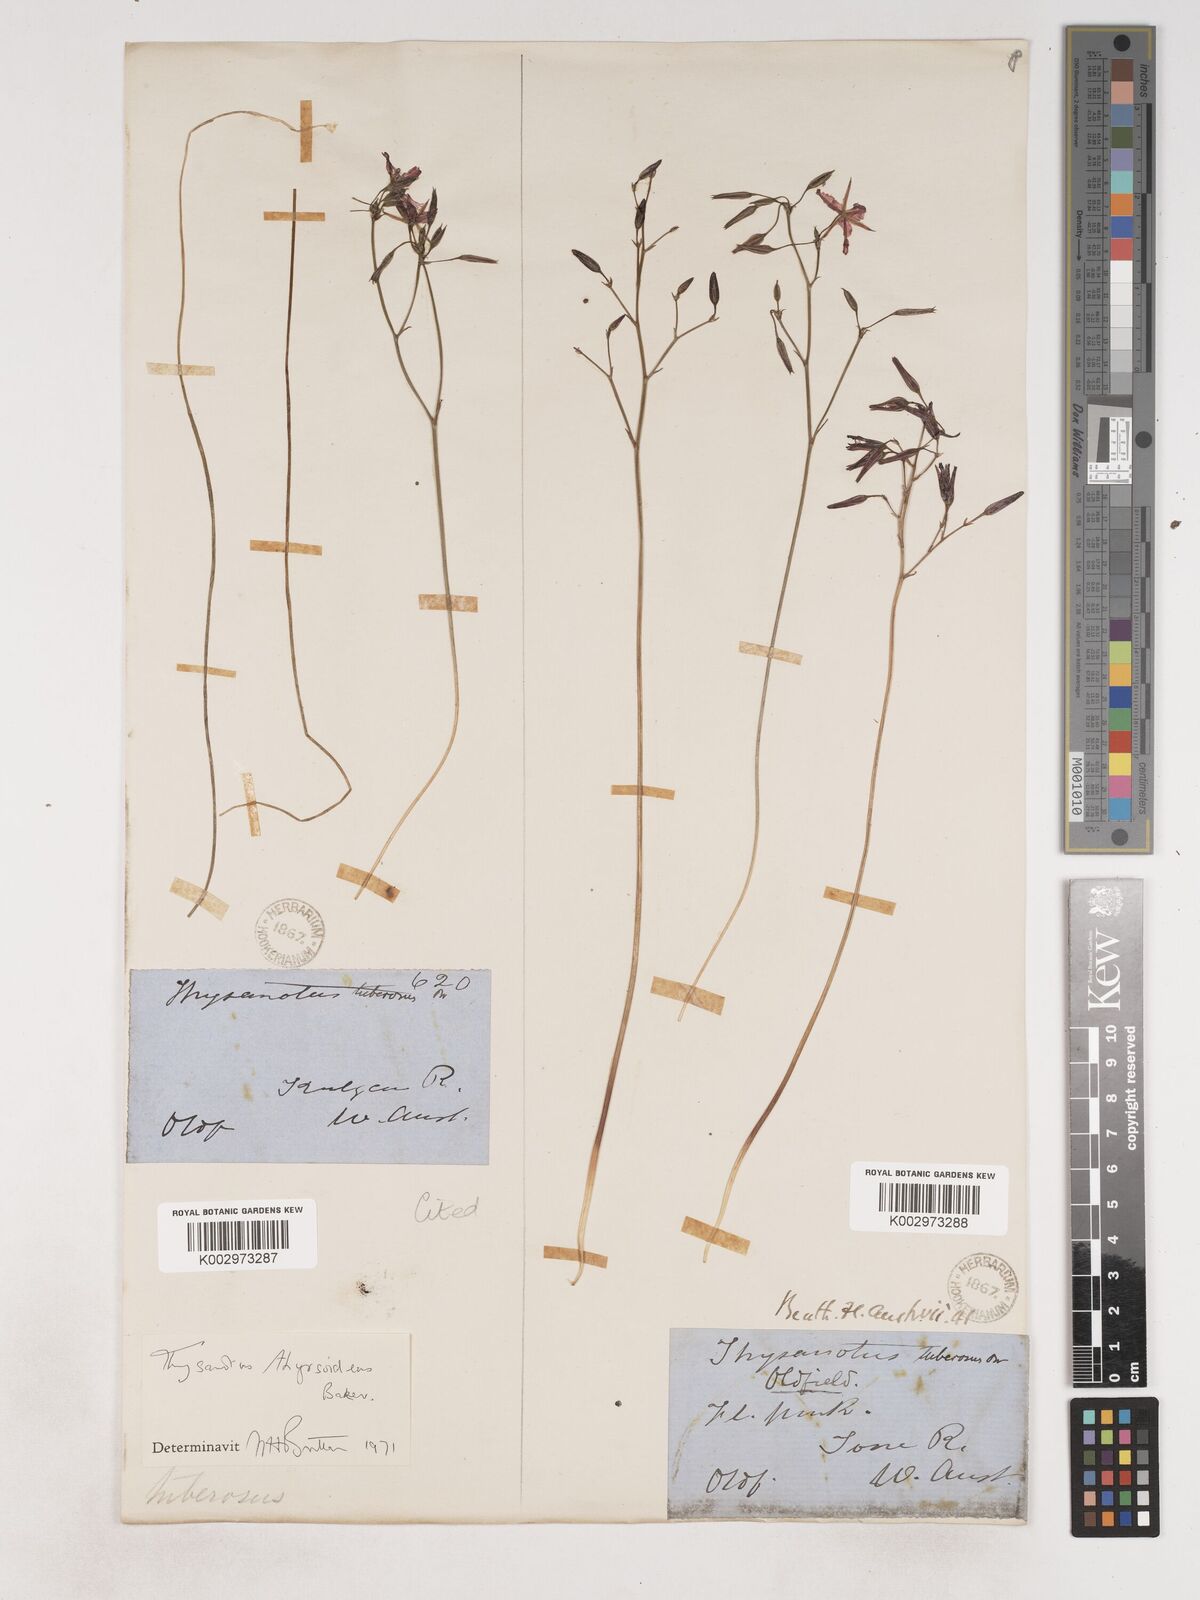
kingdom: Plantae
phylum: Tracheophyta
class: Liliopsida
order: Asparagales
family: Asparagaceae
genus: Thysanotus
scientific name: Thysanotus thyrsoideus
